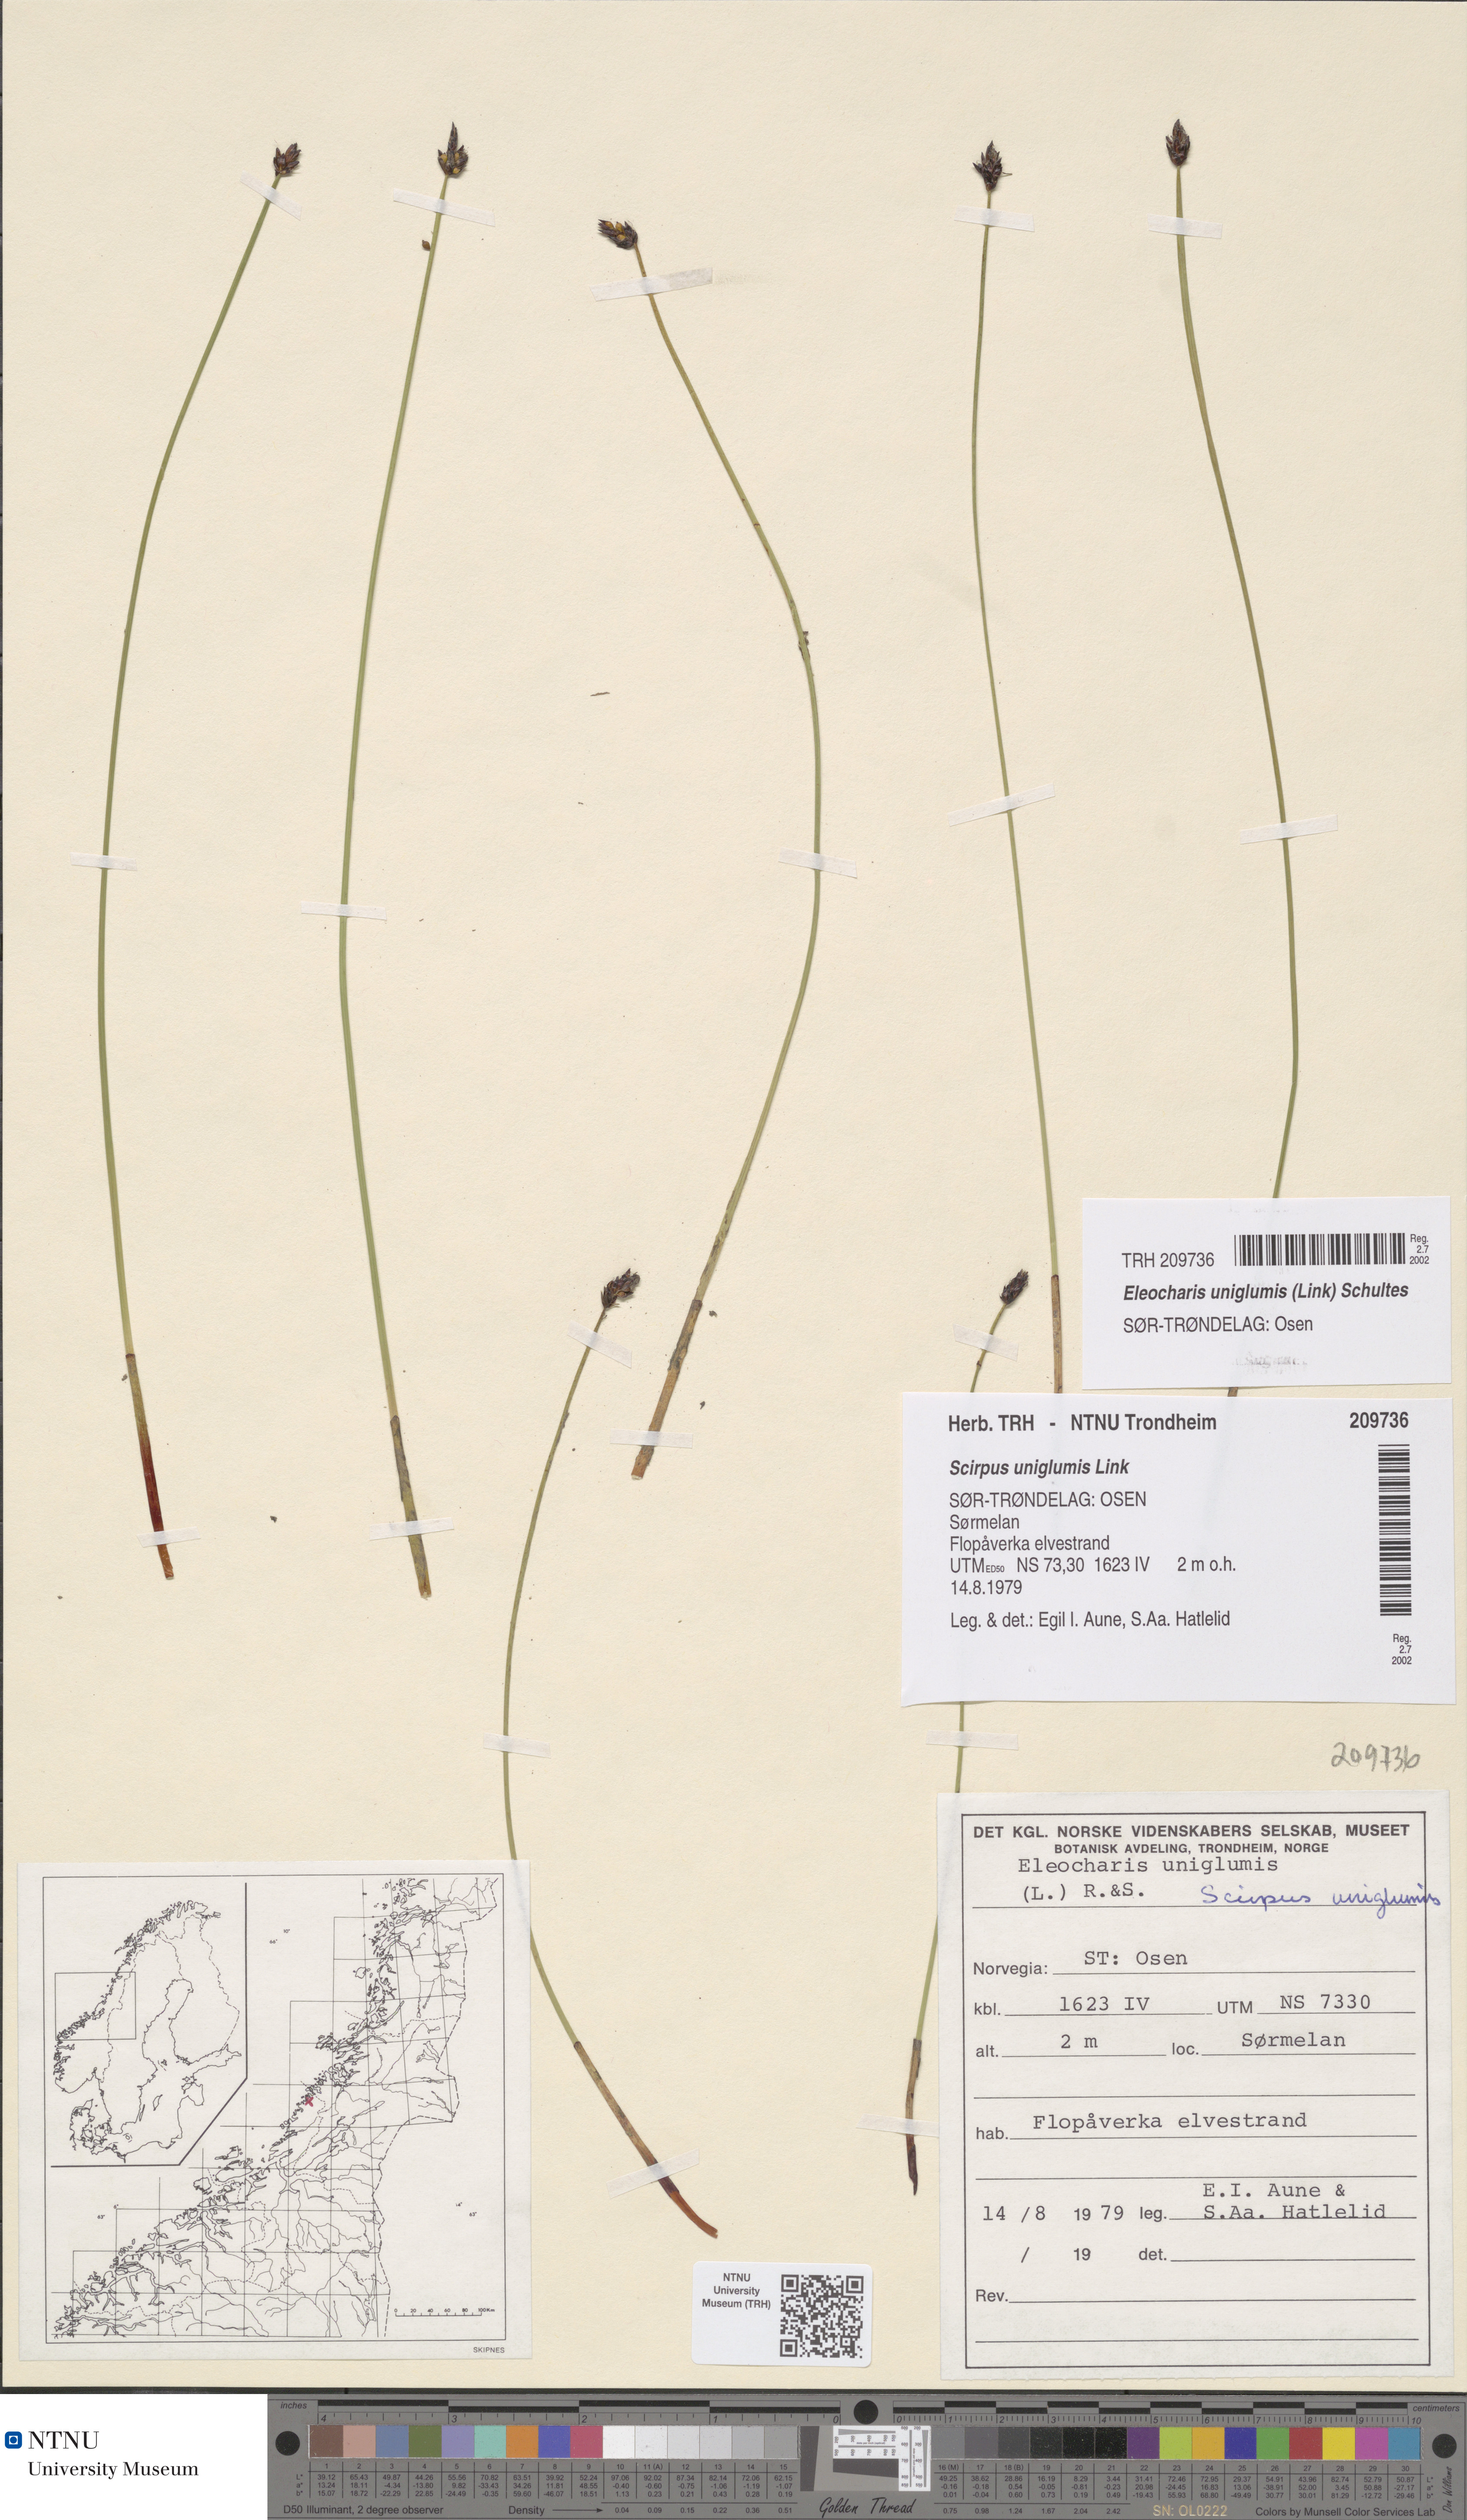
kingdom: Plantae
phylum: Tracheophyta
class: Liliopsida
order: Poales
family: Cyperaceae
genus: Eleocharis
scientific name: Eleocharis uniglumis
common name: Slender spike-rush
